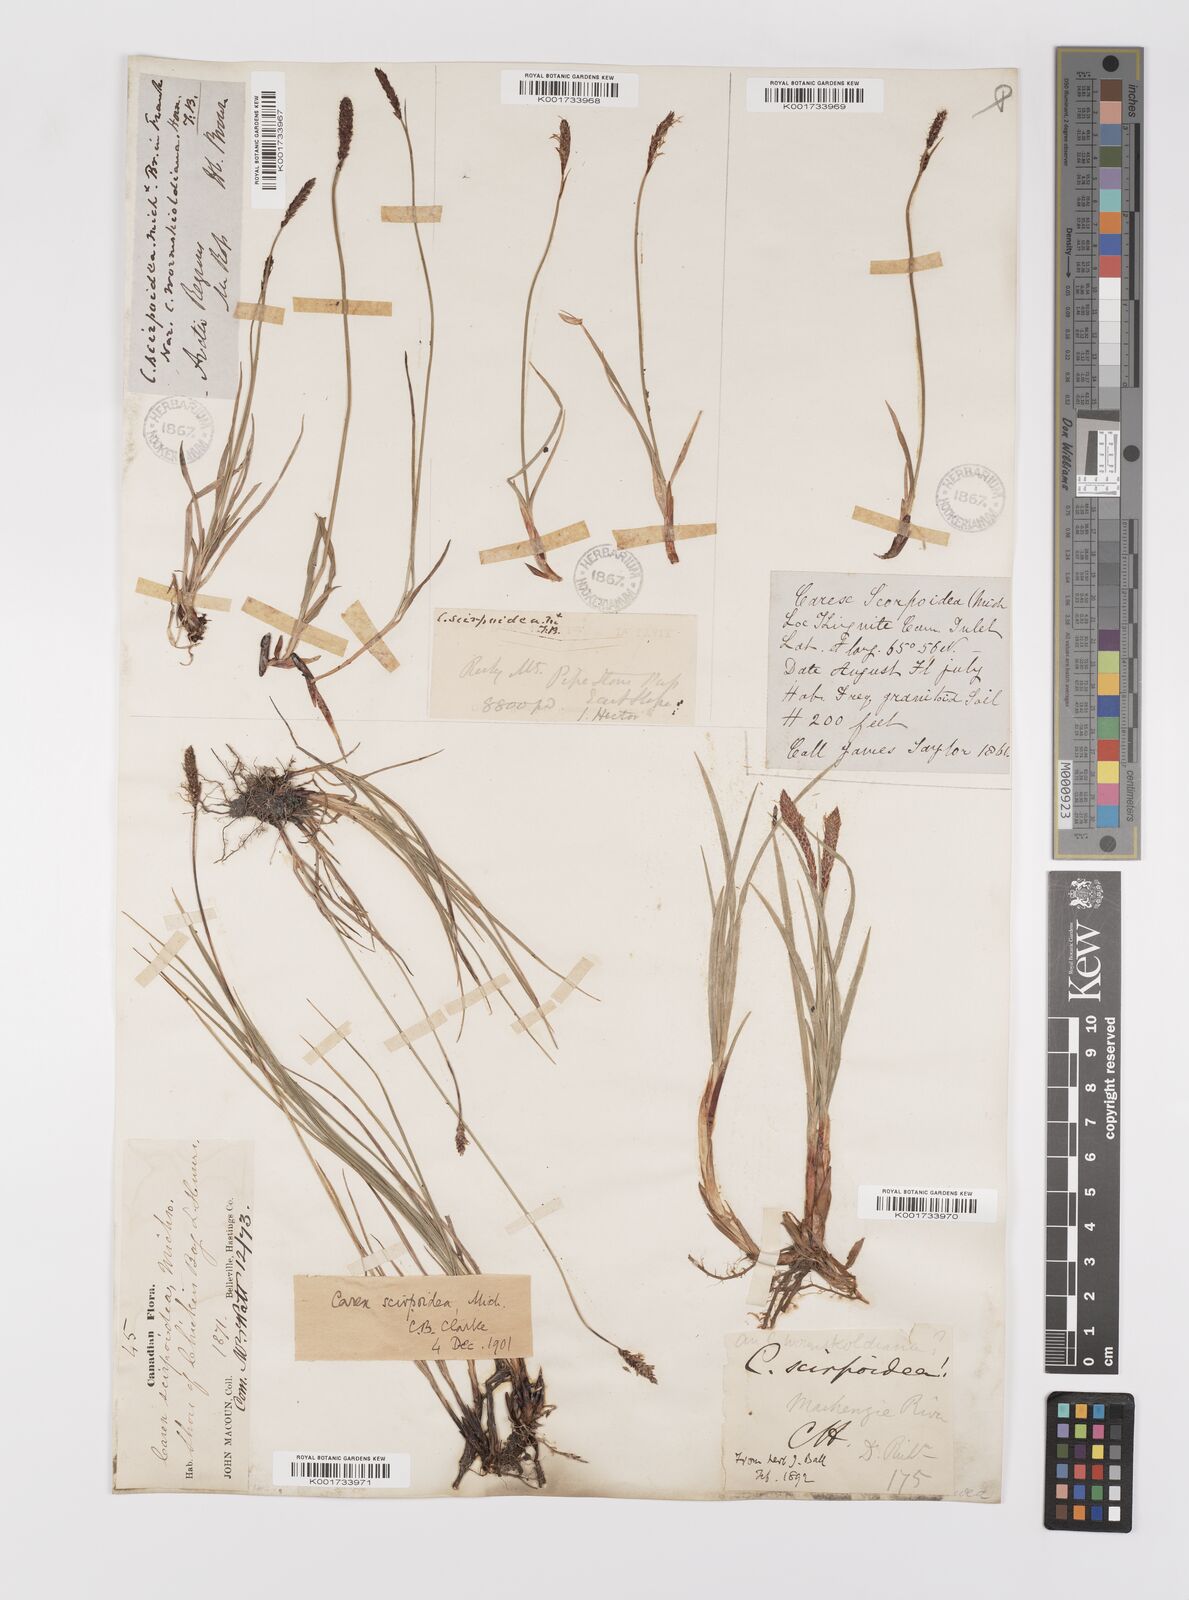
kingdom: Plantae
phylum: Tracheophyta
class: Liliopsida
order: Poales
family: Cyperaceae
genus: Carex
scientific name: Carex scirpoidea
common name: Canada single-spike sedge
